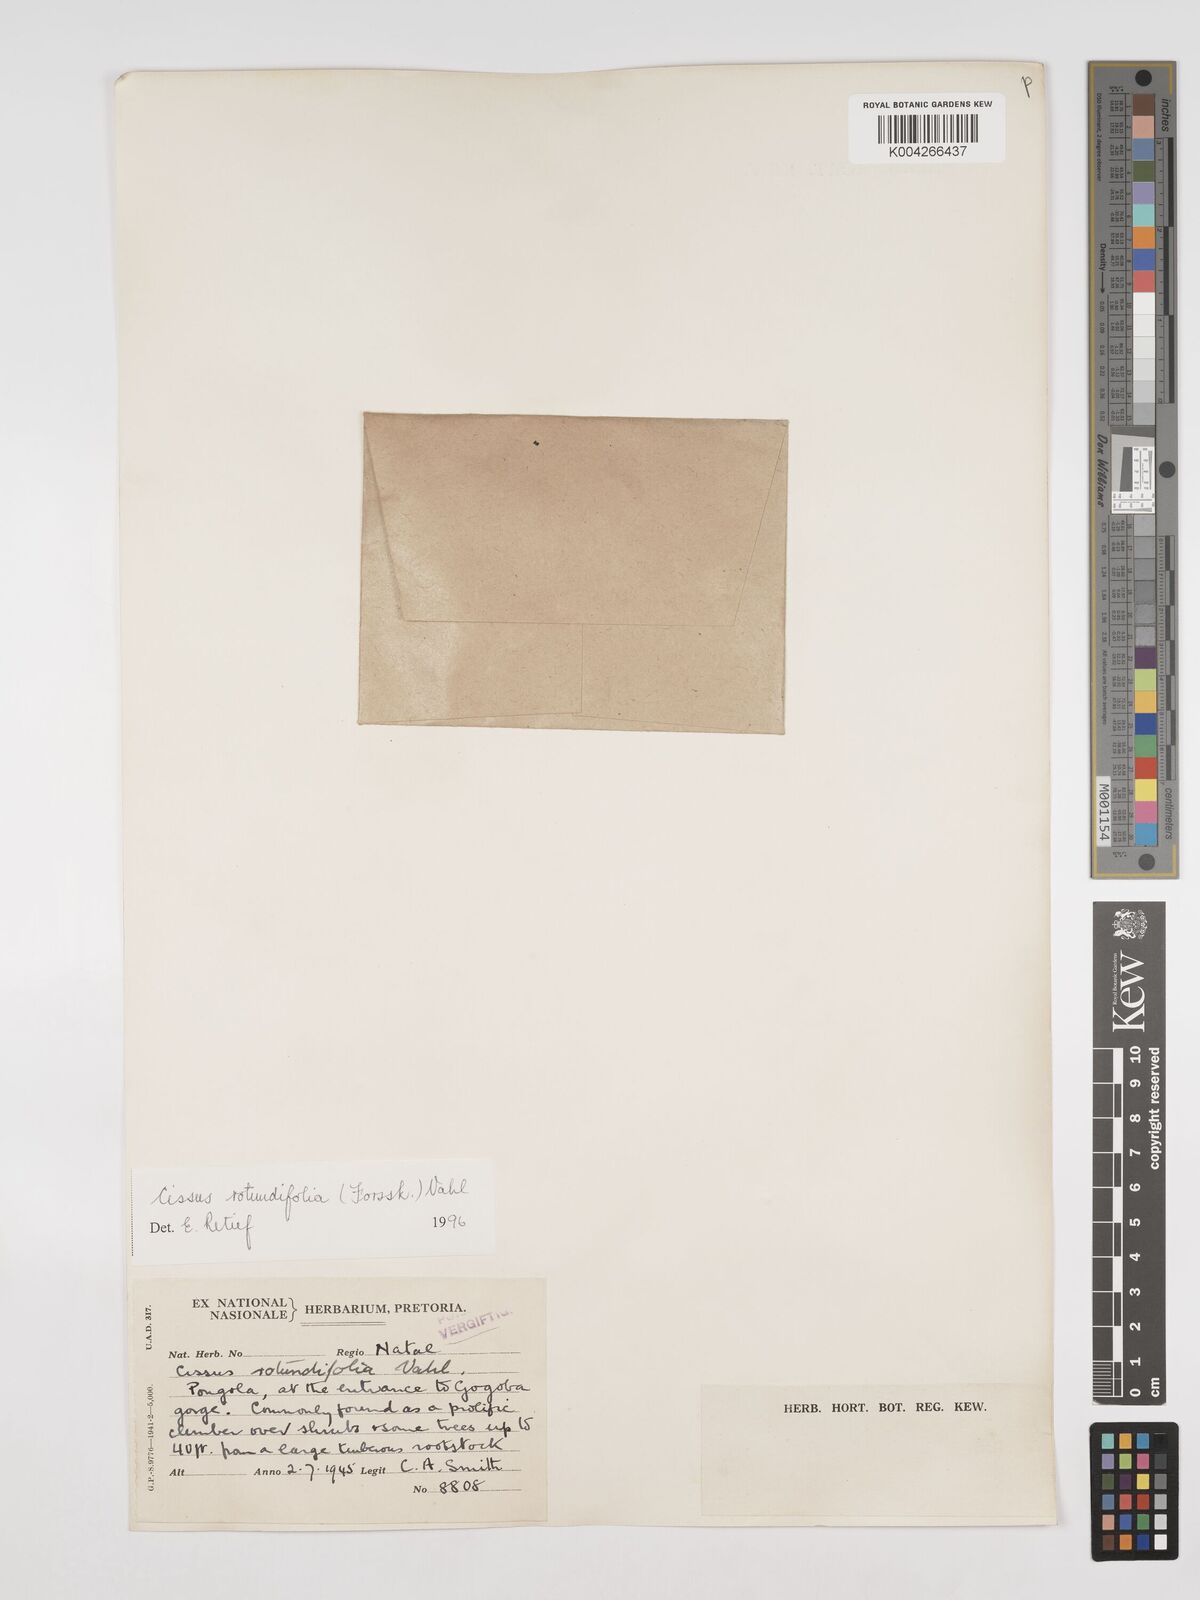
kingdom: Plantae
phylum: Tracheophyta
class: Magnoliopsida
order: Vitales
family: Vitaceae
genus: Cissus
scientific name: Cissus
